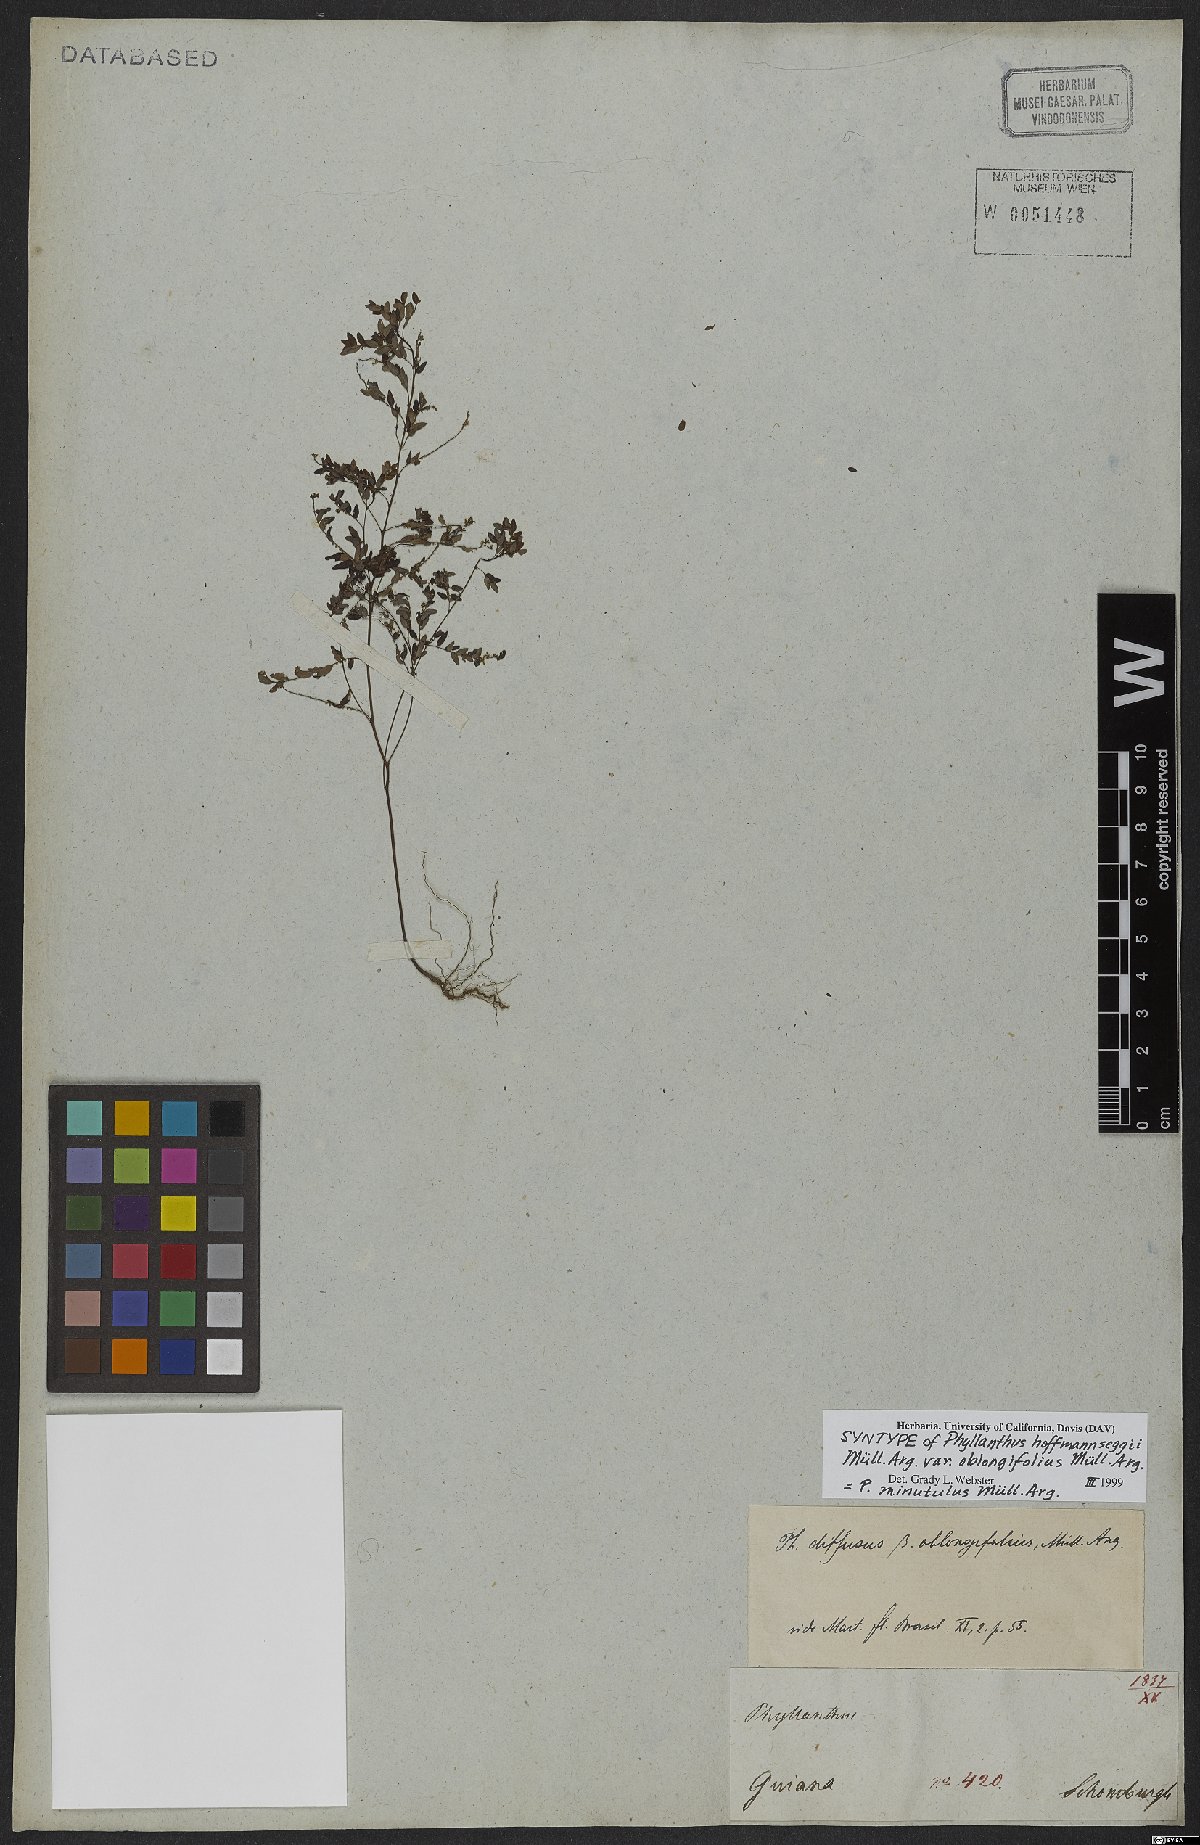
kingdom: Plantae
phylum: Tracheophyta
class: Magnoliopsida
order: Malpighiales
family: Phyllanthaceae
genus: Phyllanthus
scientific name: Phyllanthus minutulus
